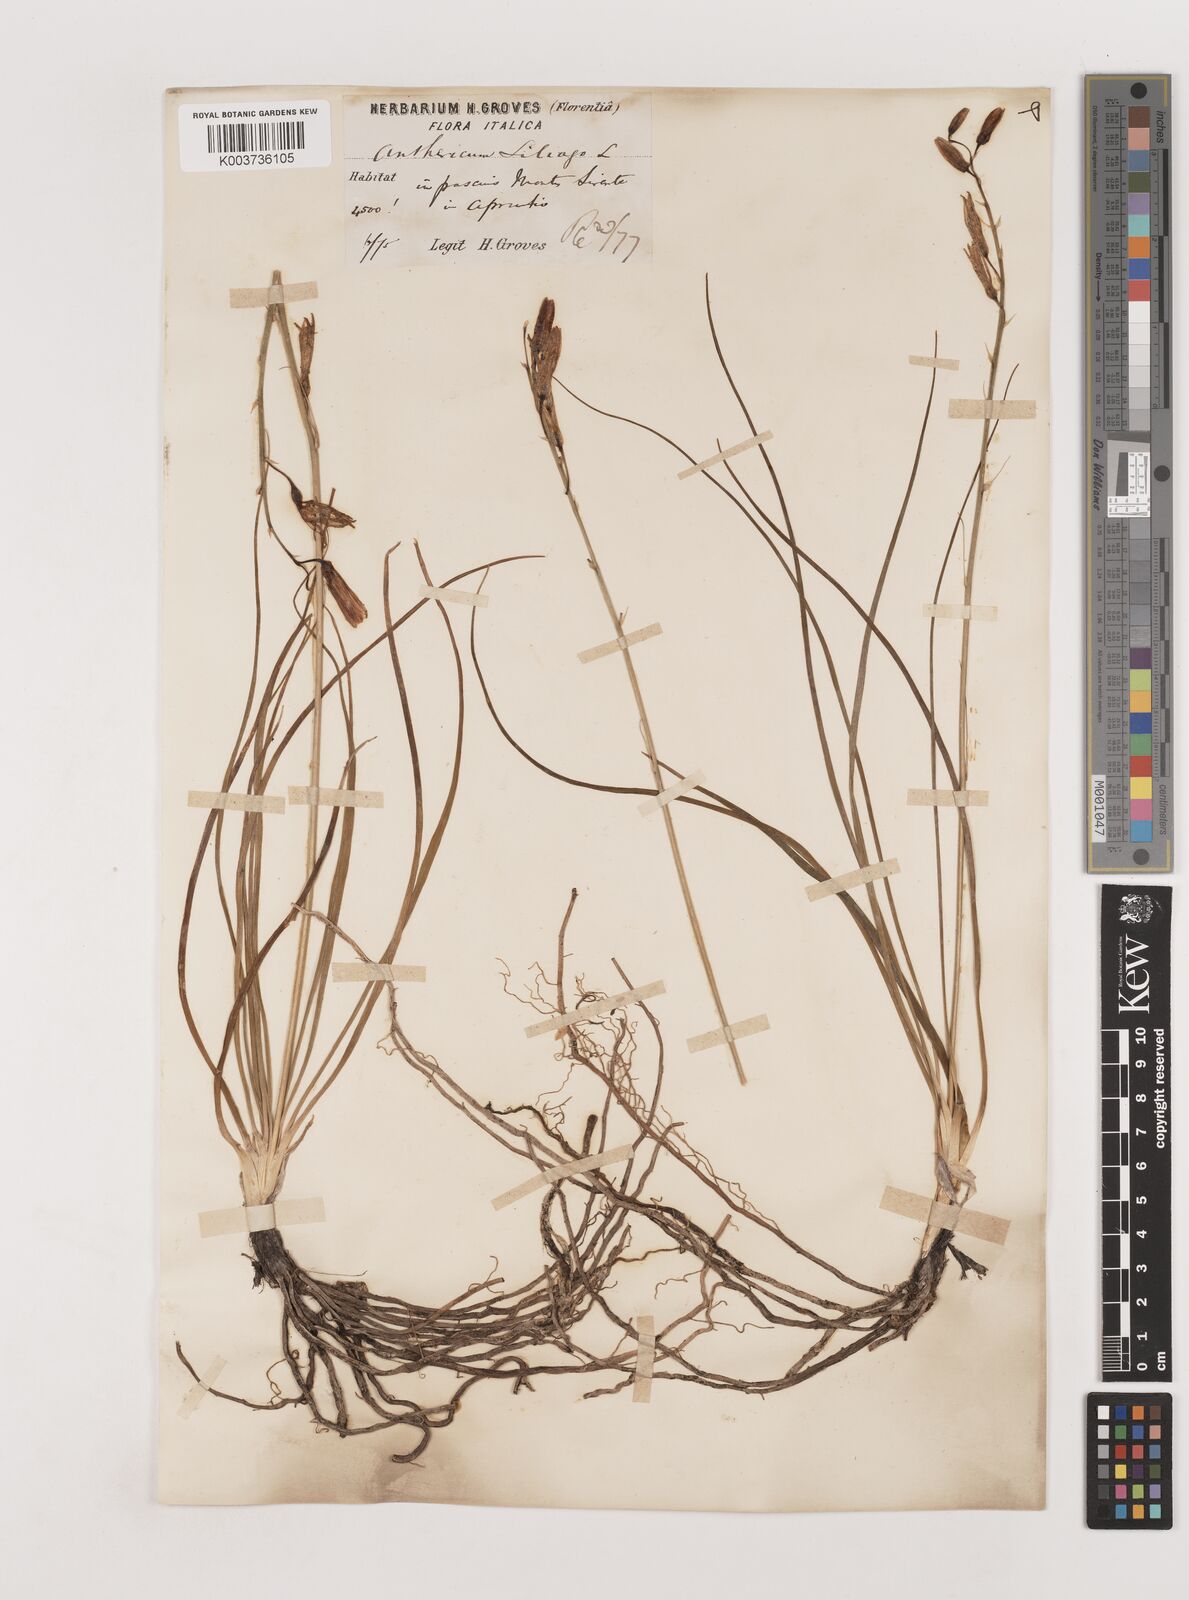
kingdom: Plantae
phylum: Tracheophyta
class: Liliopsida
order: Asparagales
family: Asparagaceae
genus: Anthericum
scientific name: Anthericum liliago
